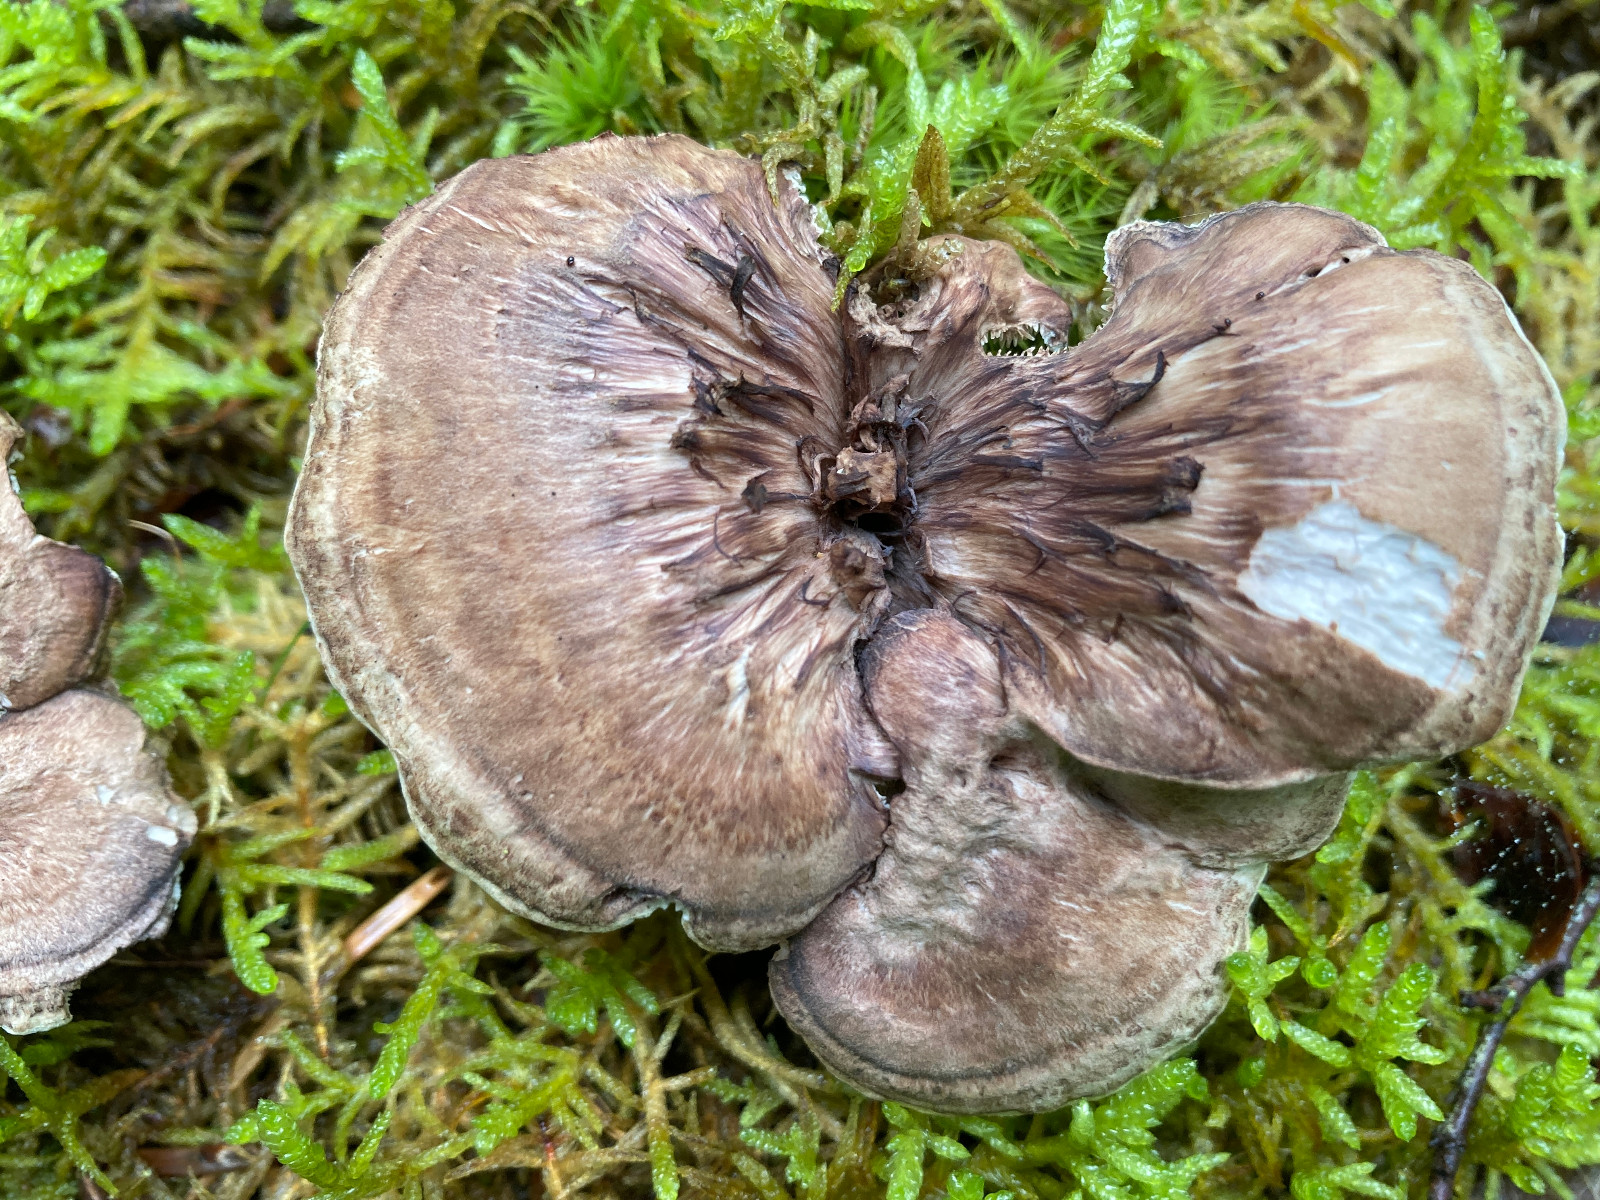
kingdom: Fungi
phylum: Basidiomycota
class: Agaricomycetes
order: Thelephorales
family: Thelephoraceae
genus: Phellodon
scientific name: Phellodon violascens
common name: violetbrun duftpigsvamp
